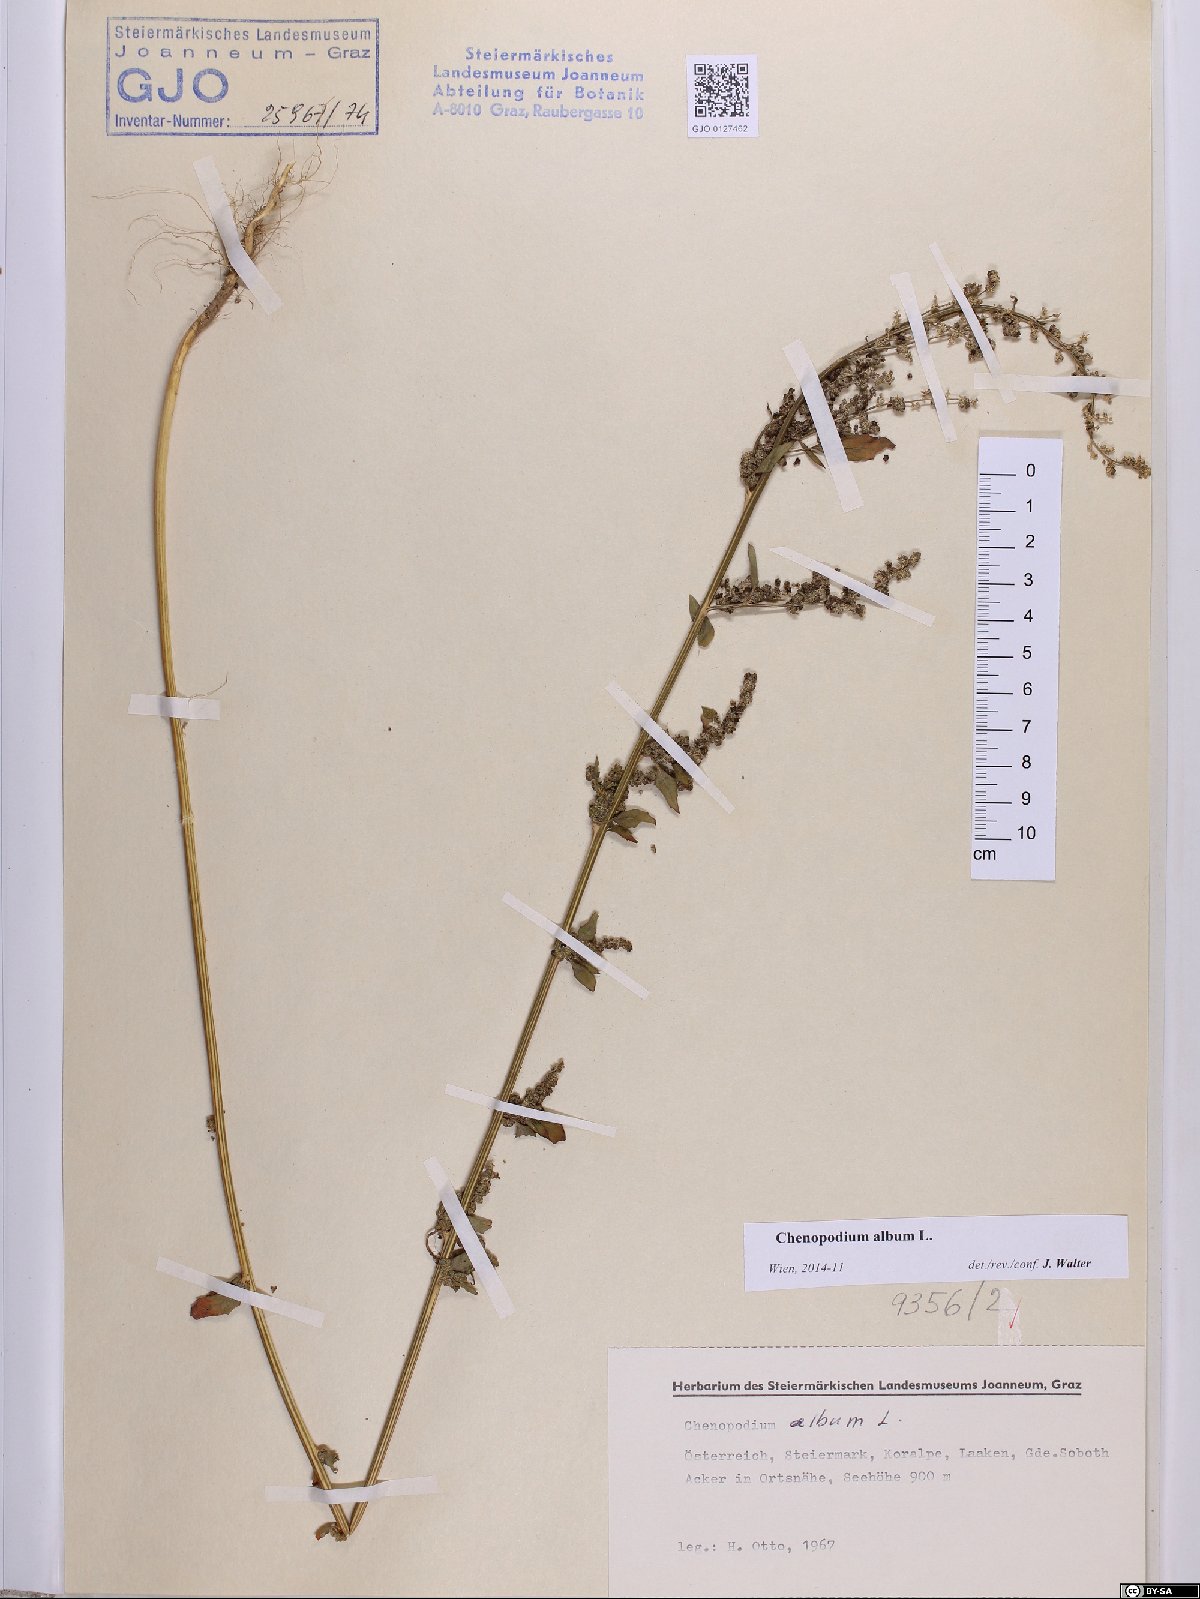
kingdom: Plantae
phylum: Tracheophyta
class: Magnoliopsida
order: Caryophyllales
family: Amaranthaceae
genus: Chenopodium
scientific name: Chenopodium album
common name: Fat-hen
